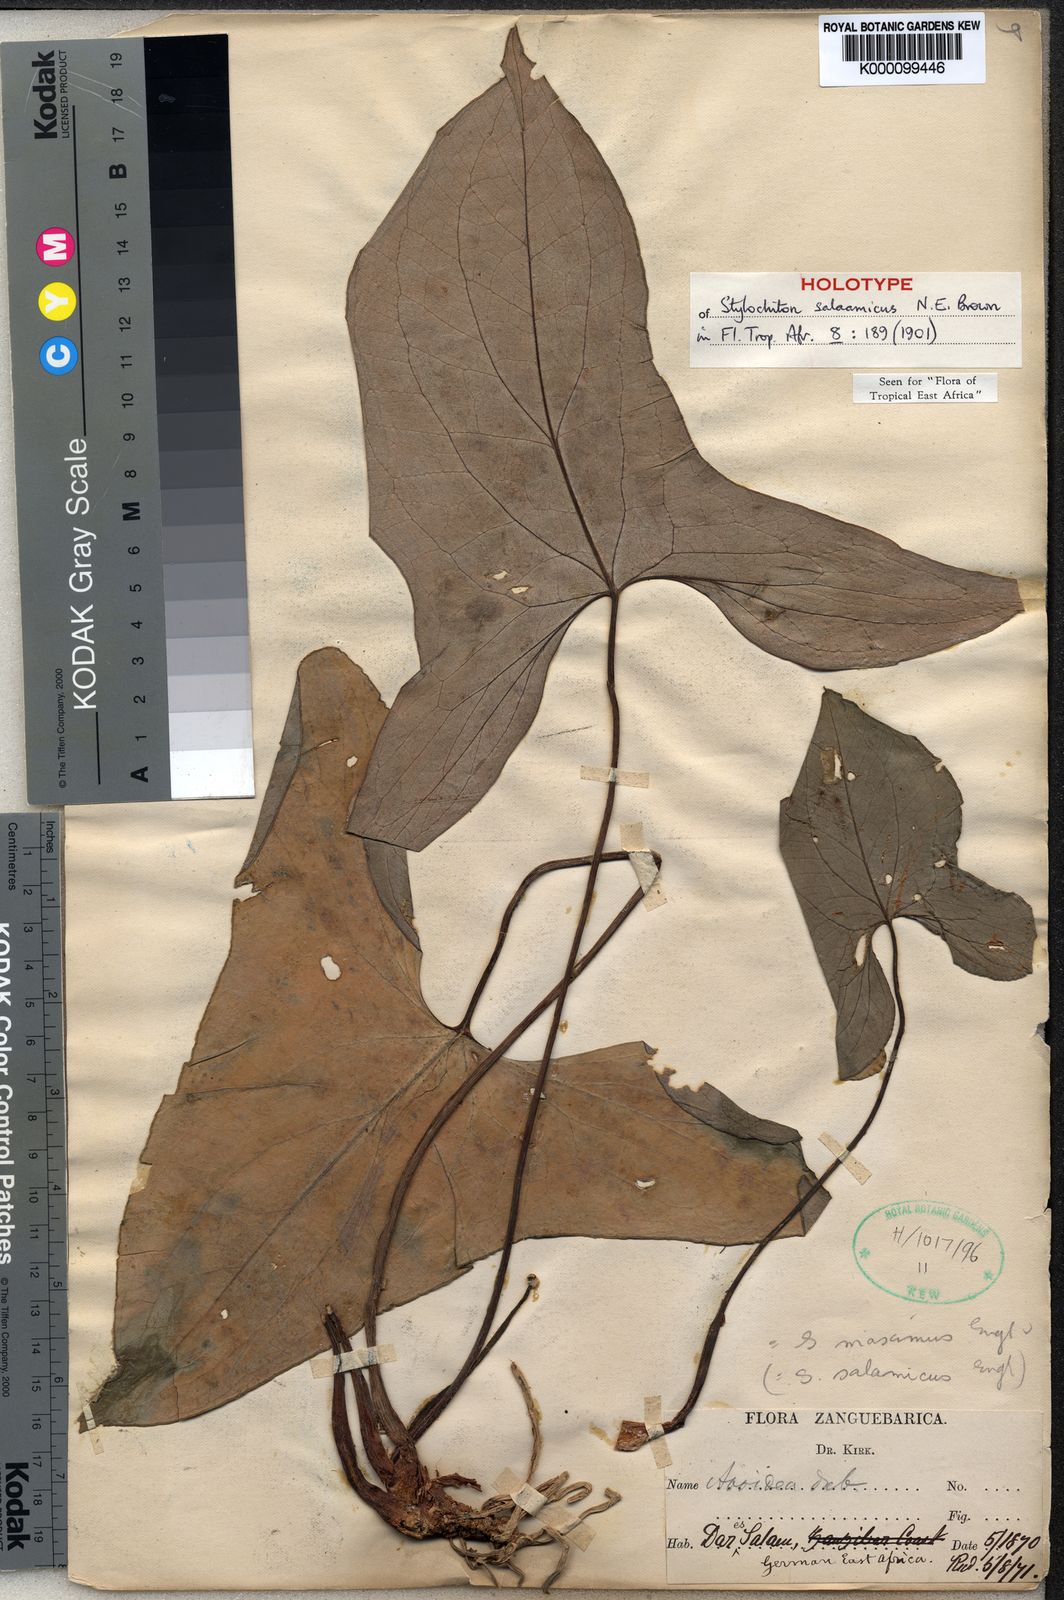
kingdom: Plantae
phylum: Tracheophyta
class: Liliopsida
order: Alismatales
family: Araceae
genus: Stylochaeton
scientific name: Stylochaeton salaamicum
